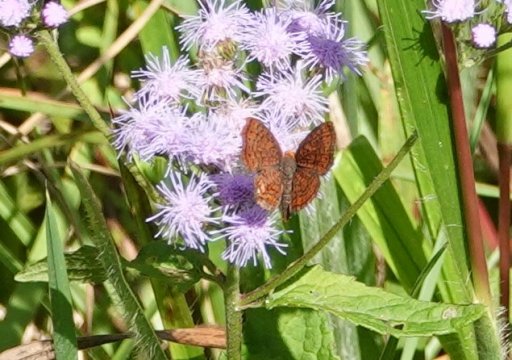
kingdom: Animalia
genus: Calephelis
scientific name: Calephelis virginiensis
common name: Little Metalmark
